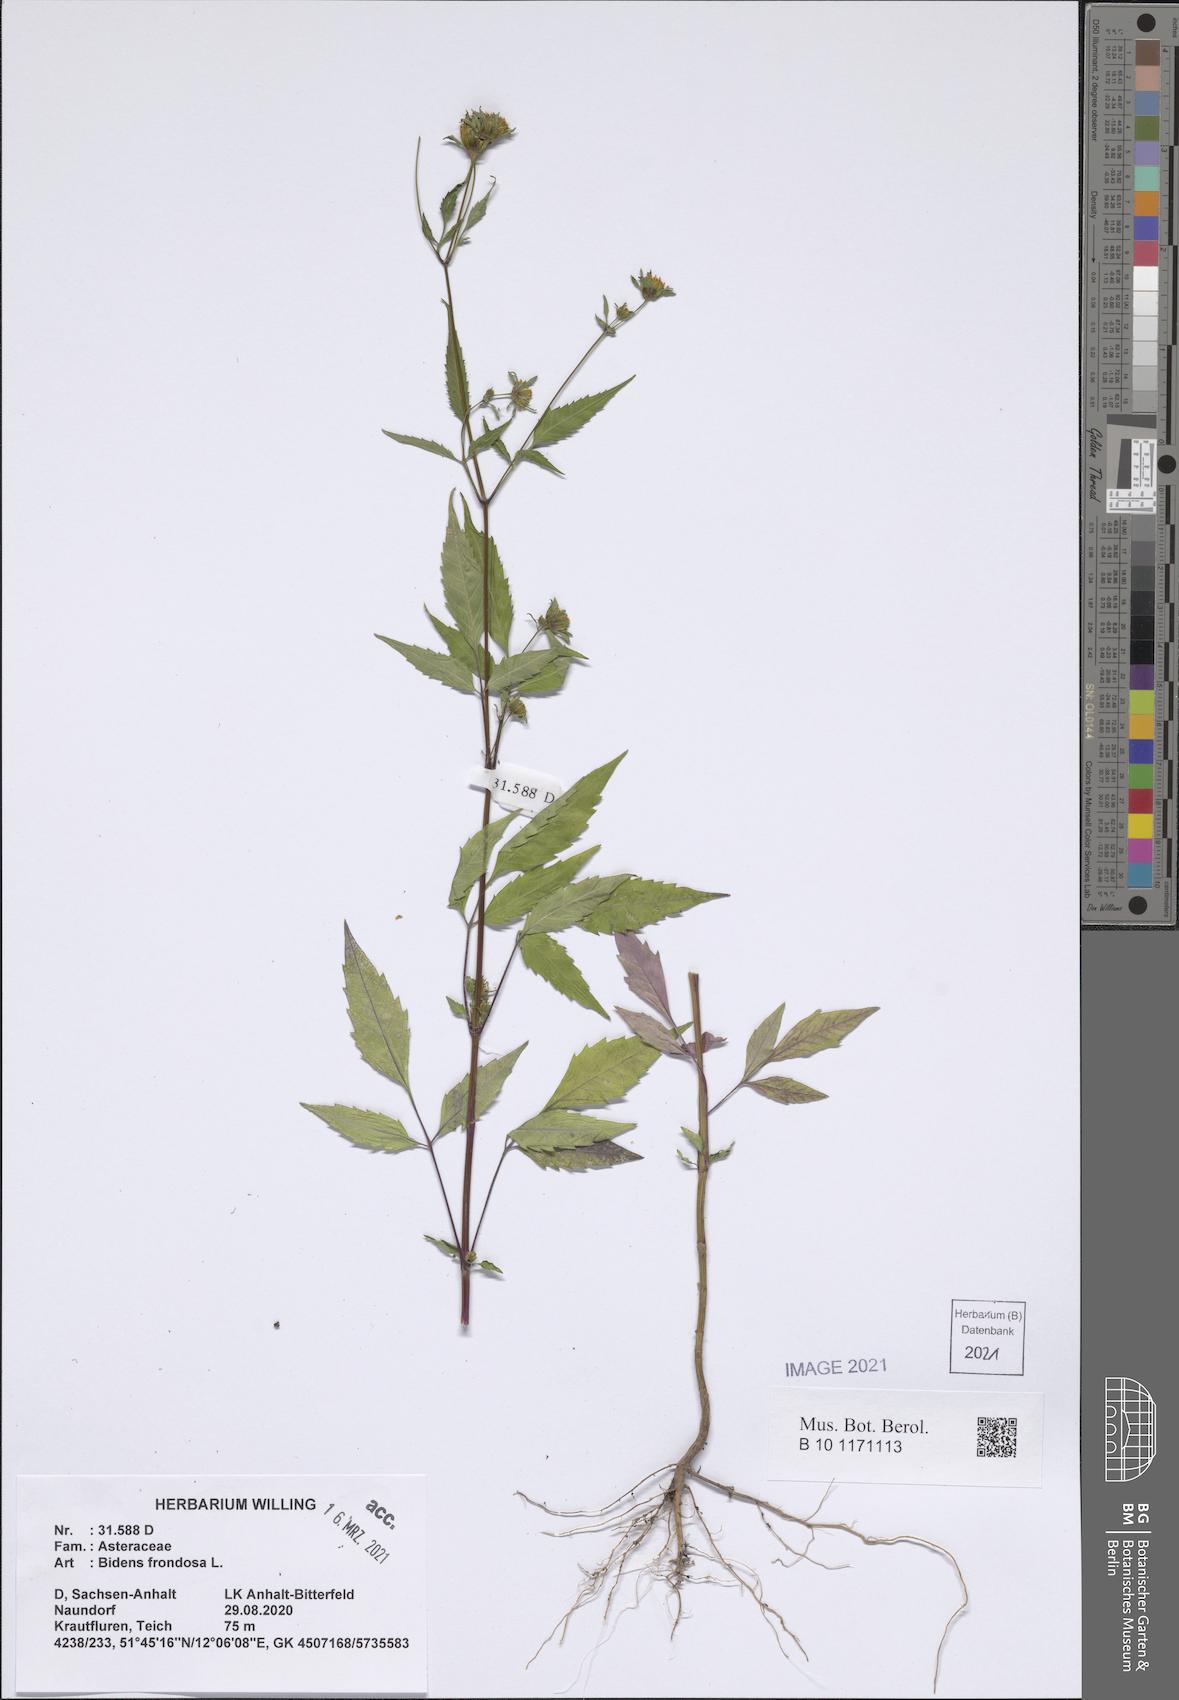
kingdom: Plantae
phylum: Tracheophyta
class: Magnoliopsida
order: Asterales
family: Asteraceae
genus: Bidens
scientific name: Bidens frondosa
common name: Beggarticks
